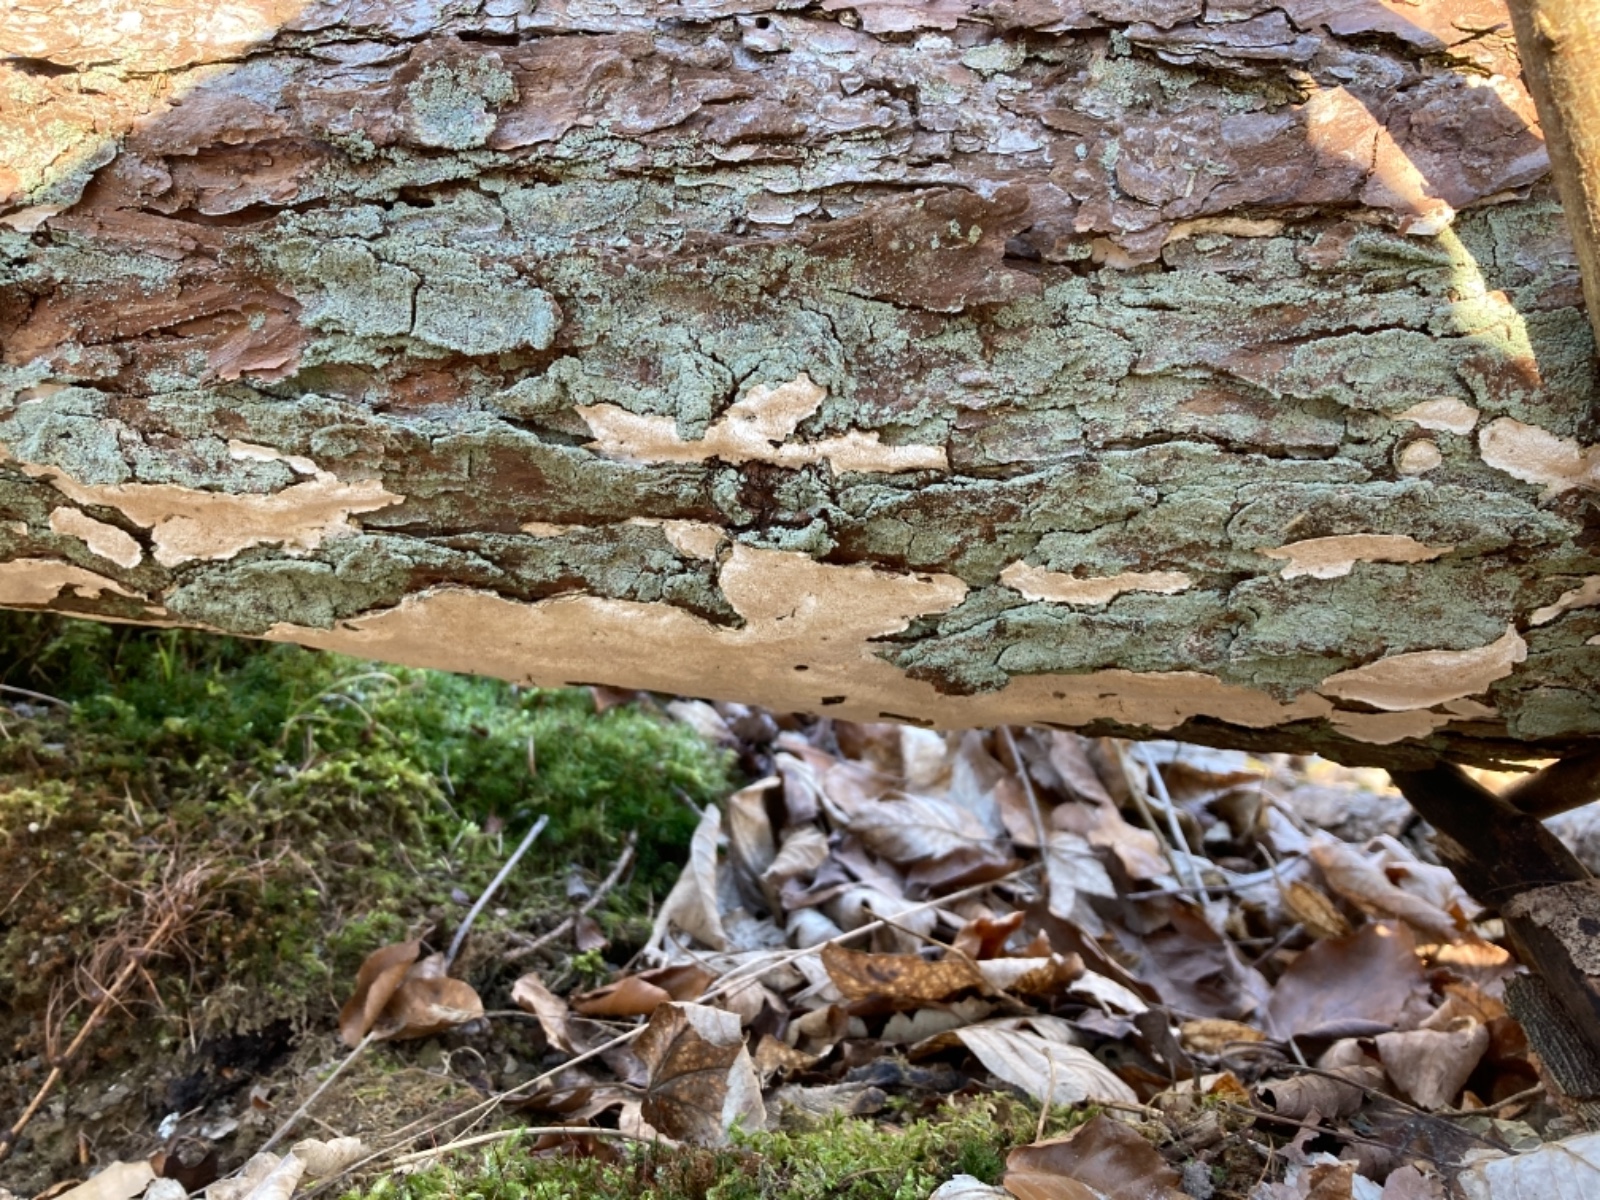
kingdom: Fungi
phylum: Basidiomycota
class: Agaricomycetes
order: Polyporales
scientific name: Polyporales
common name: poresvampordenen
